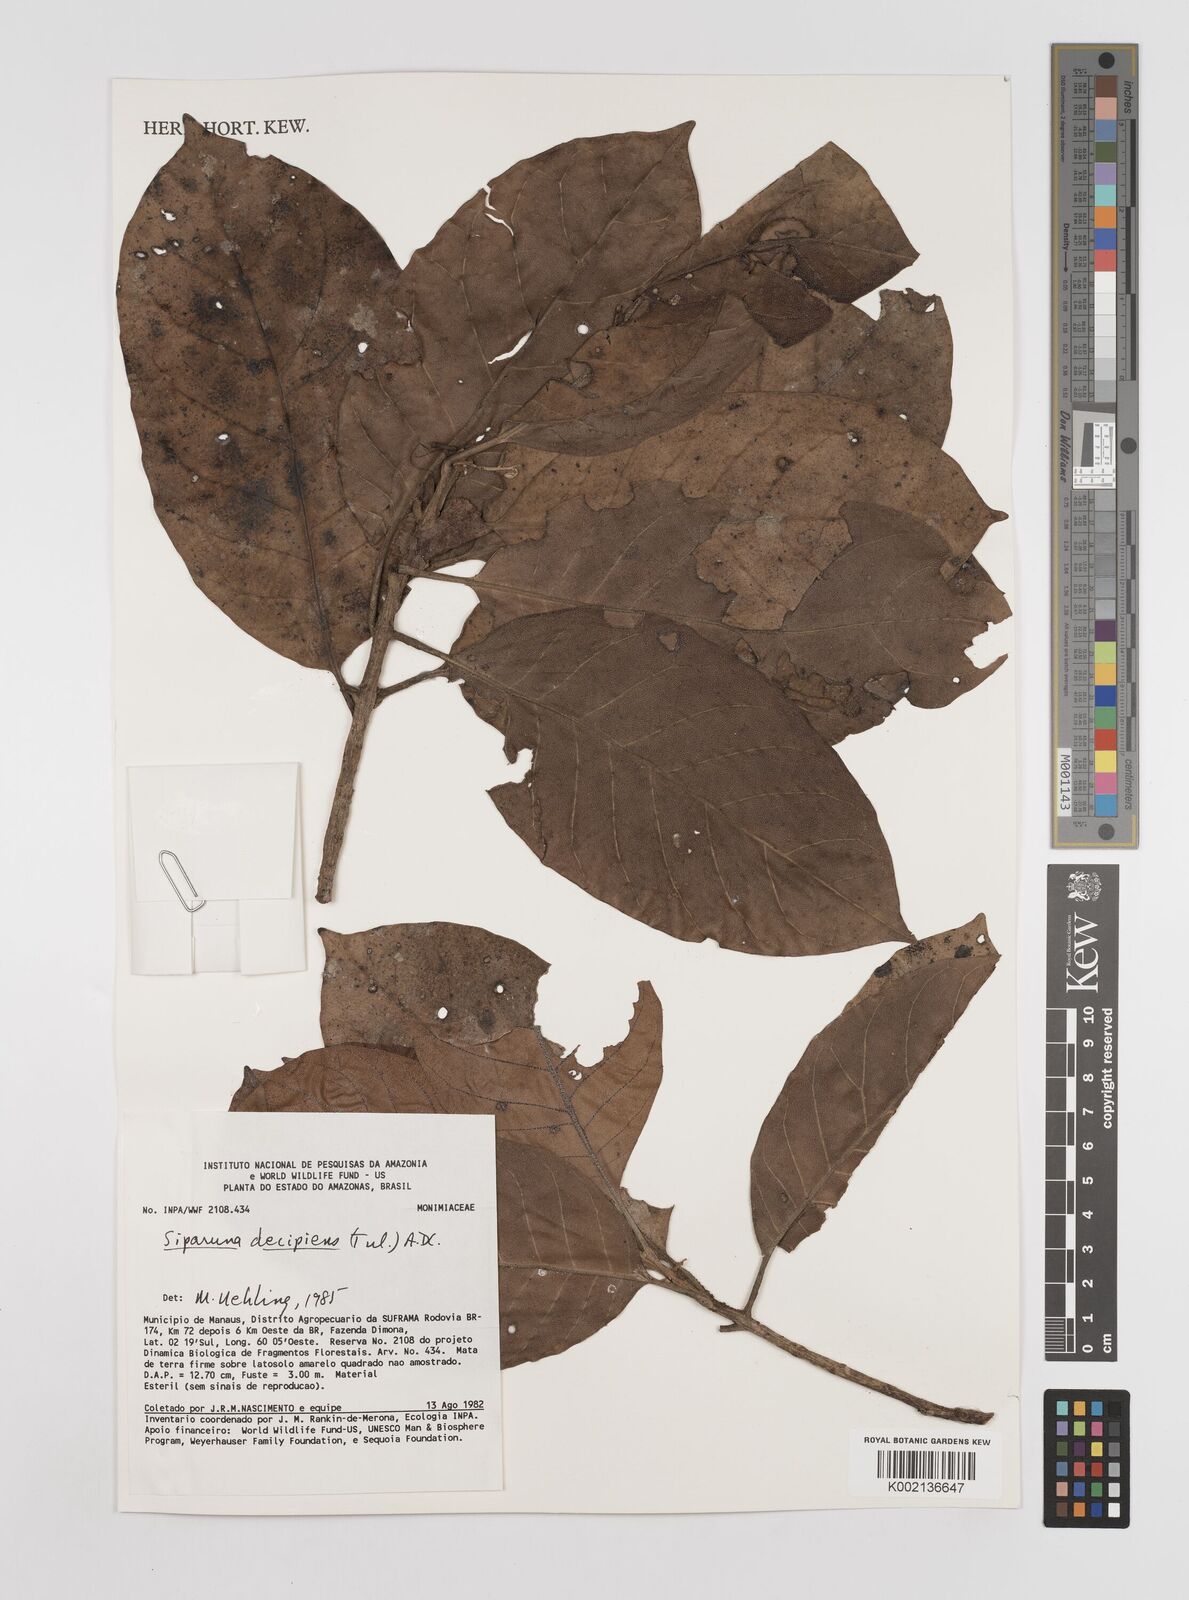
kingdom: Plantae
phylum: Tracheophyta
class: Magnoliopsida
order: Laurales
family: Siparunaceae
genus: Siparuna
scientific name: Siparuna decipiens
